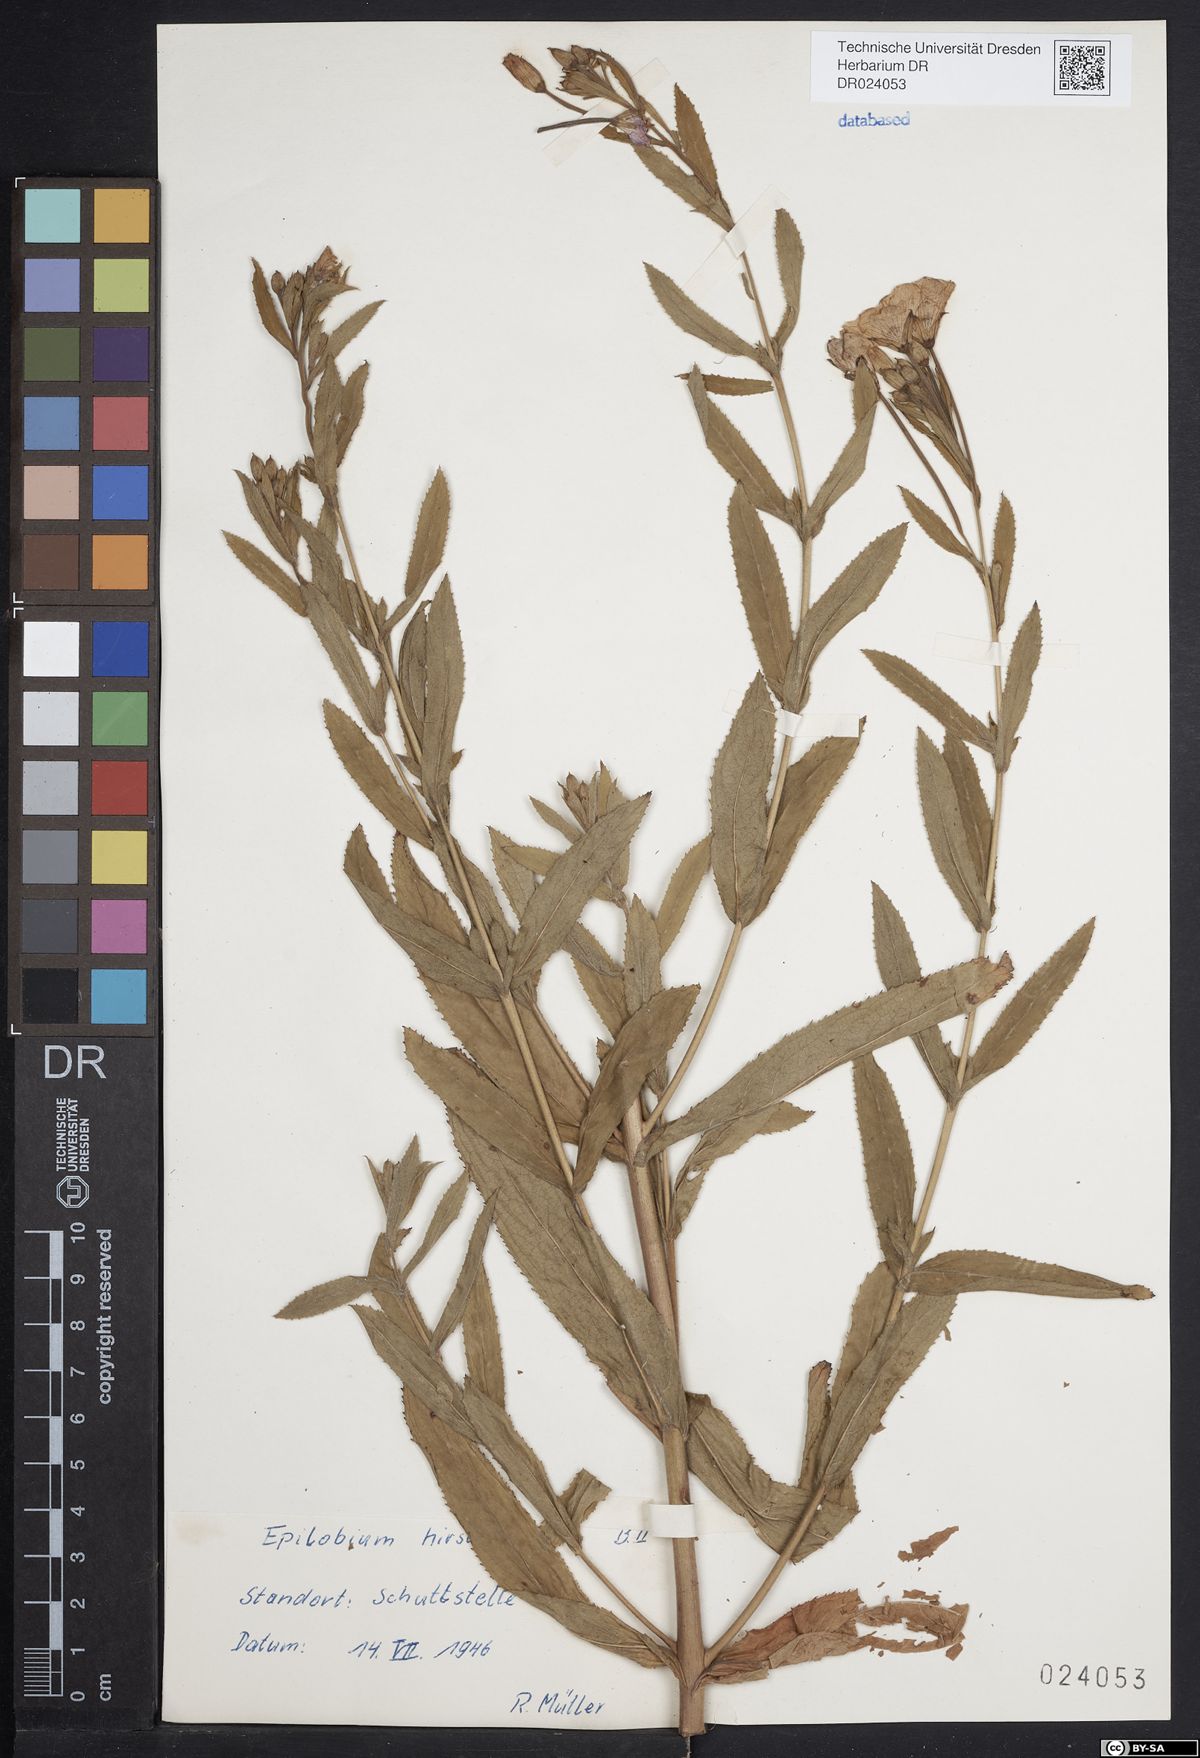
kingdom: Plantae
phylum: Tracheophyta
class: Magnoliopsida
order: Myrtales
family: Onagraceae
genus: Epilobium
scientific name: Epilobium hirsutum
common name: Great willowherb
